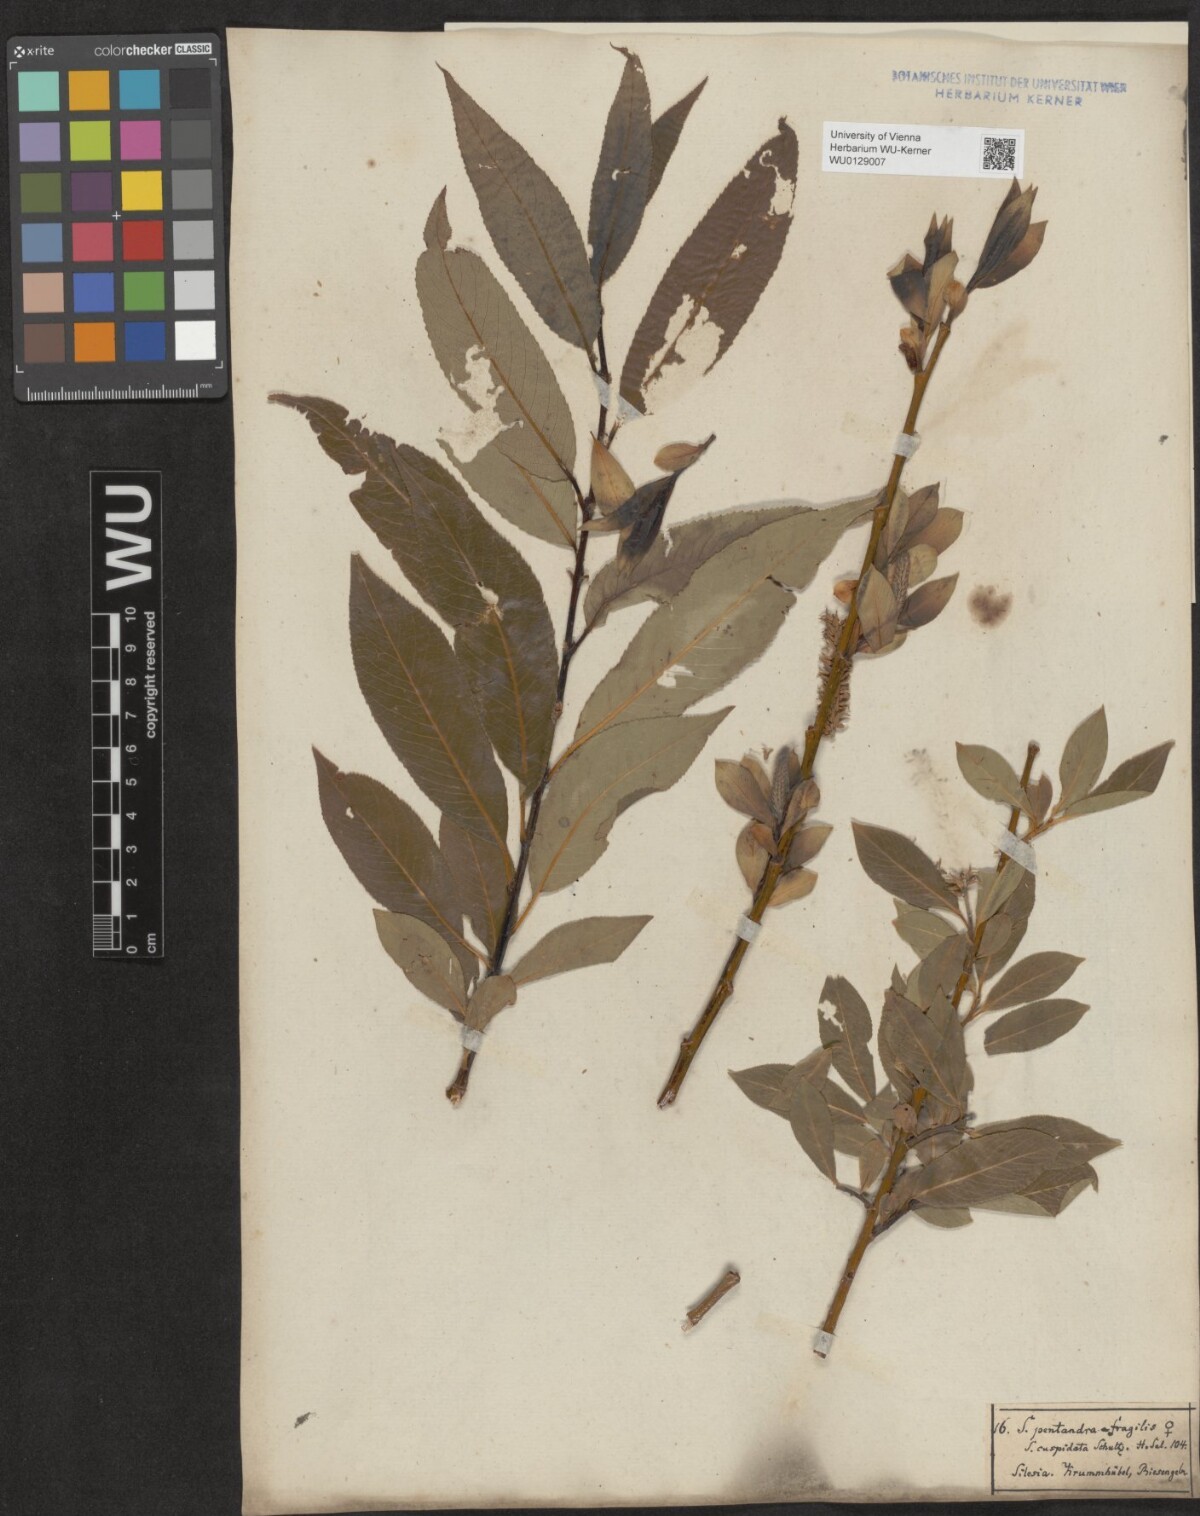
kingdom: Plantae
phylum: Tracheophyta
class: Magnoliopsida
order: Malpighiales
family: Salicaceae
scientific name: Salicaceae
